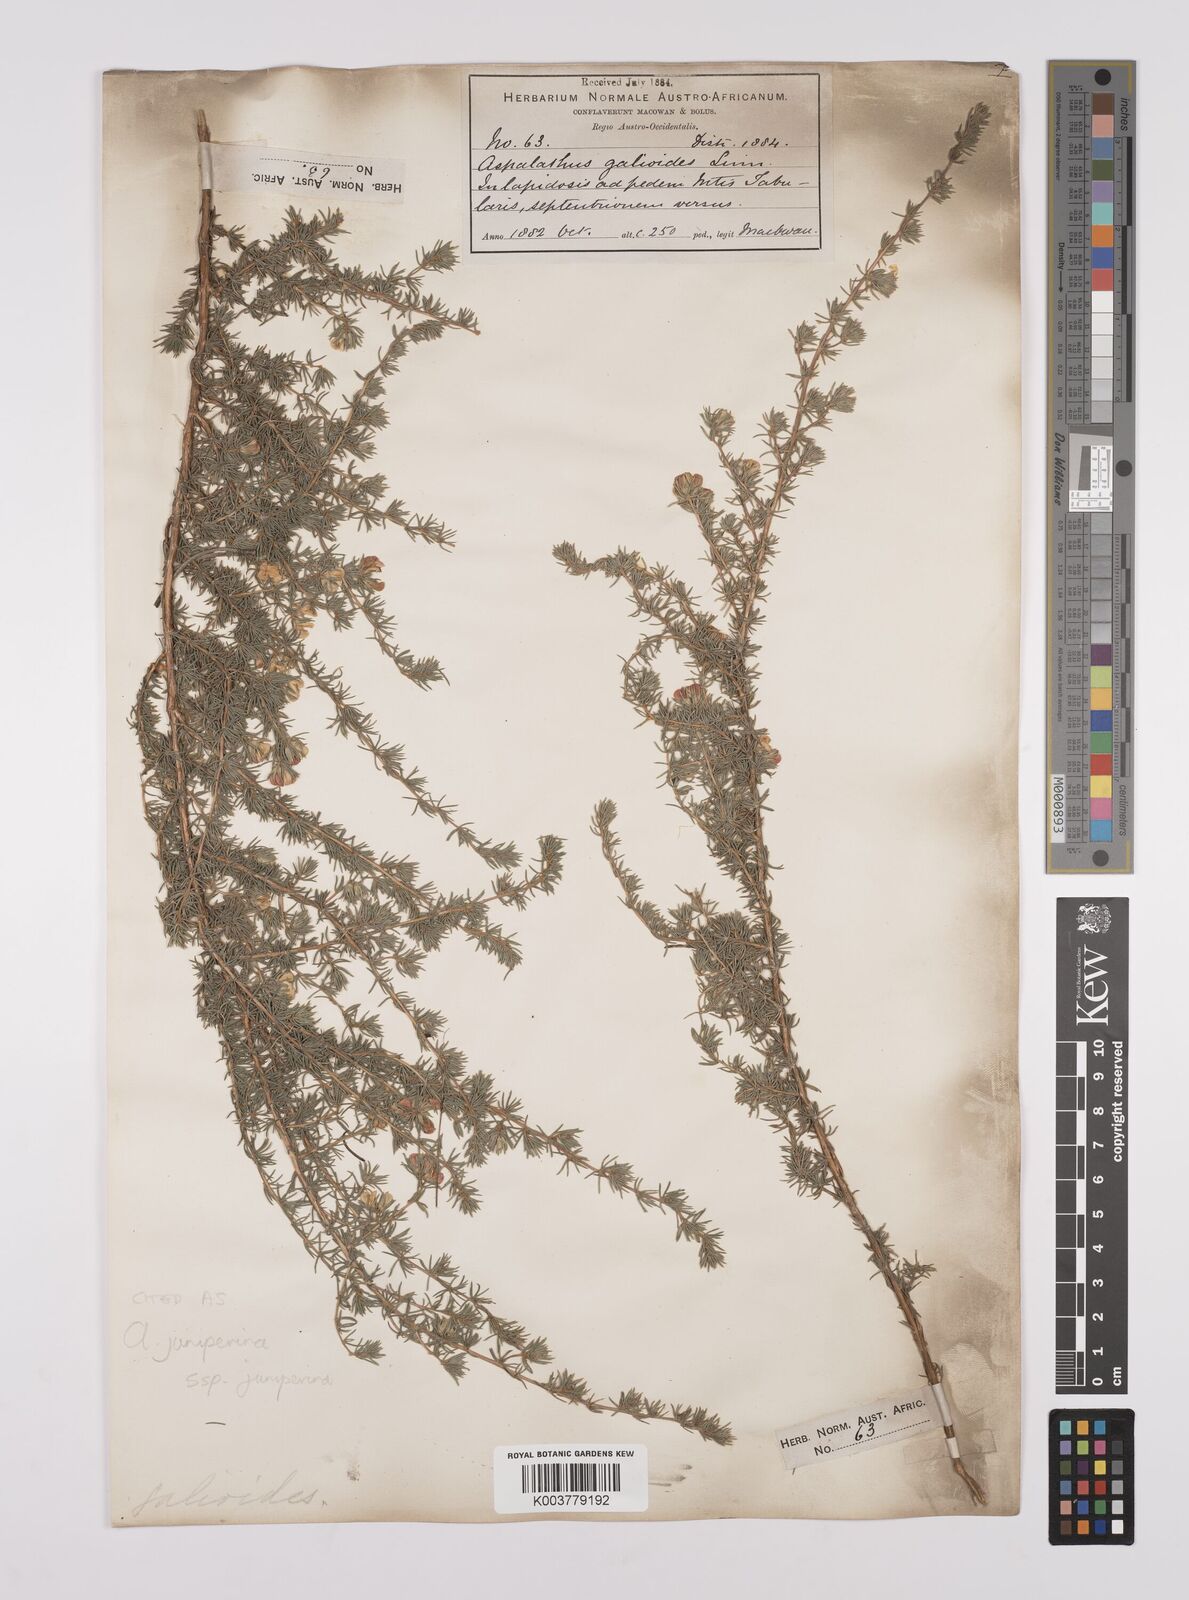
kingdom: Plantae
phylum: Tracheophyta
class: Magnoliopsida
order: Fabales
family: Fabaceae
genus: Aspalathus
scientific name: Aspalathus juniperina
